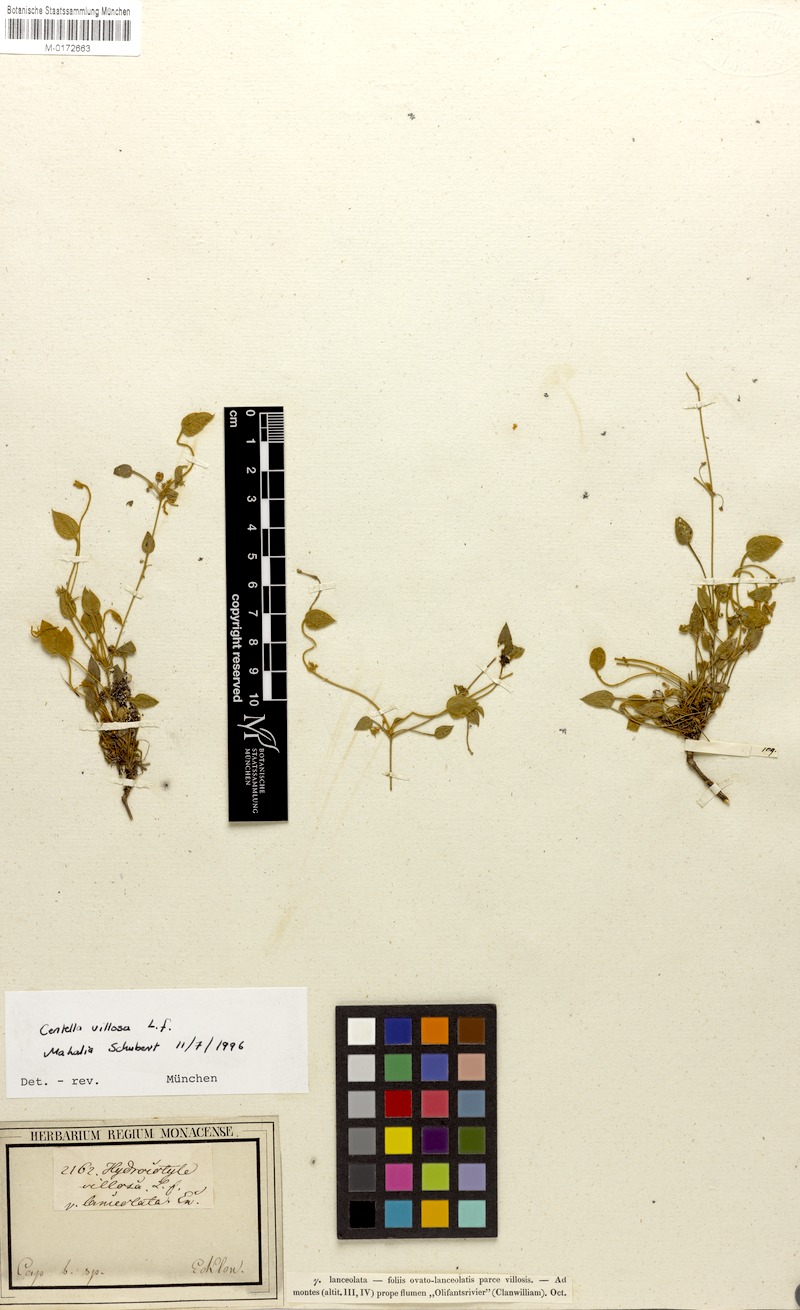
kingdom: Plantae
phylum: Tracheophyta
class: Magnoliopsida
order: Apiales
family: Apiaceae
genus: Centella
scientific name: Centella villosa
